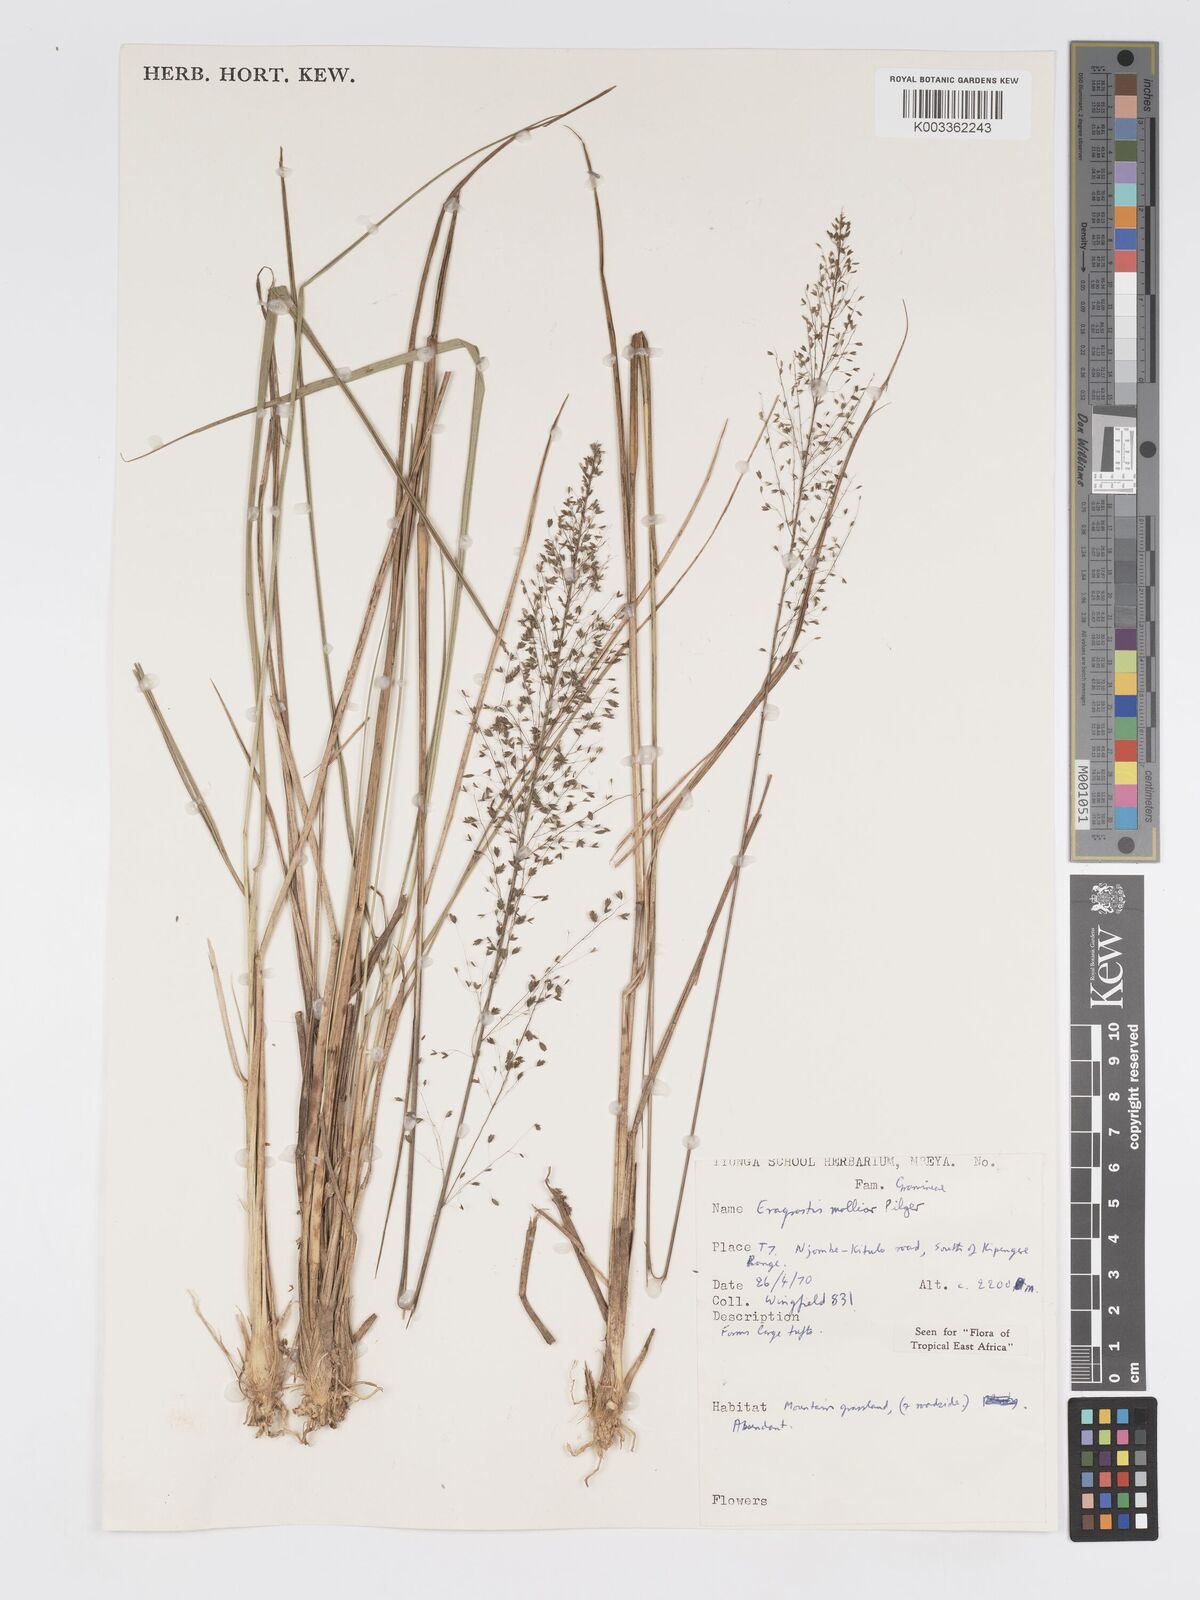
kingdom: Plantae
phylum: Tracheophyta
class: Liliopsida
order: Poales
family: Poaceae
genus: Eragrostis
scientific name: Eragrostis mollior
